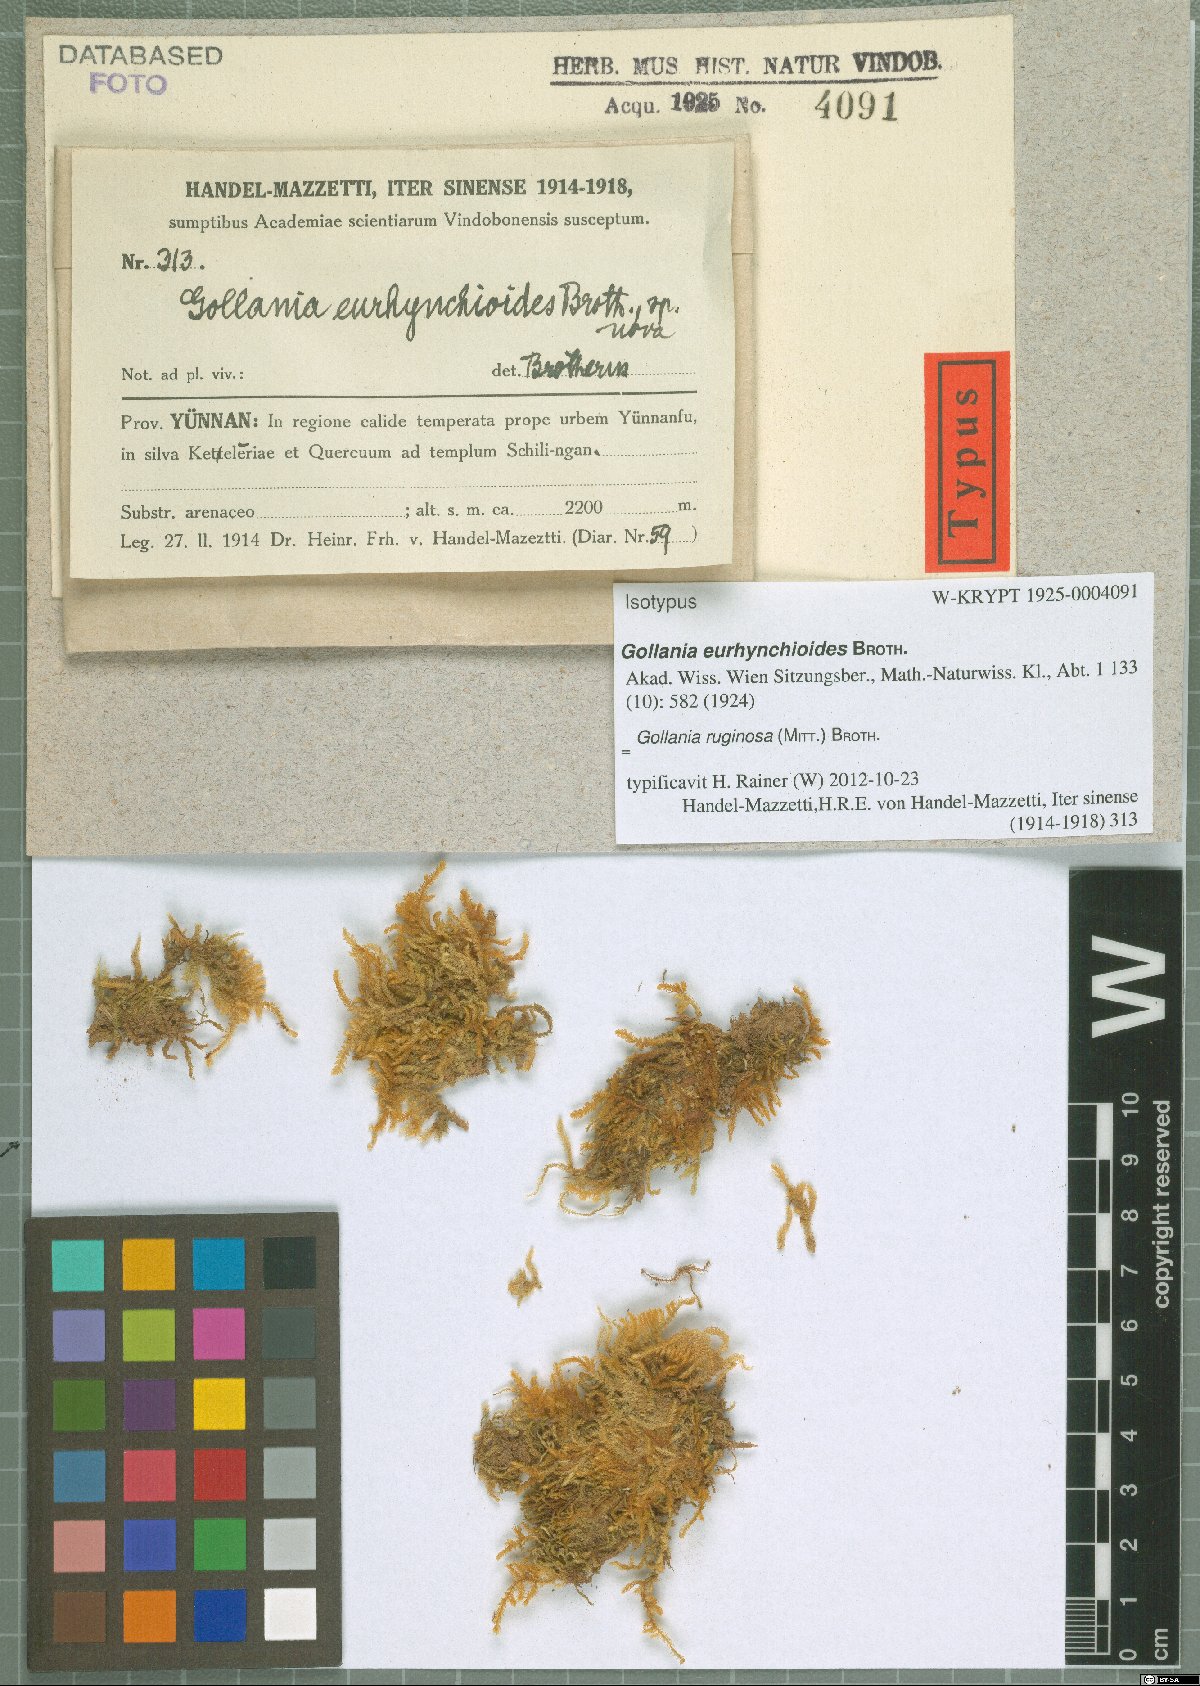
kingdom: Plantae
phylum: Bryophyta
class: Bryopsida
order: Hypnales
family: Hypnaceae
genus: Gollania
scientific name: Gollania ruginosa
